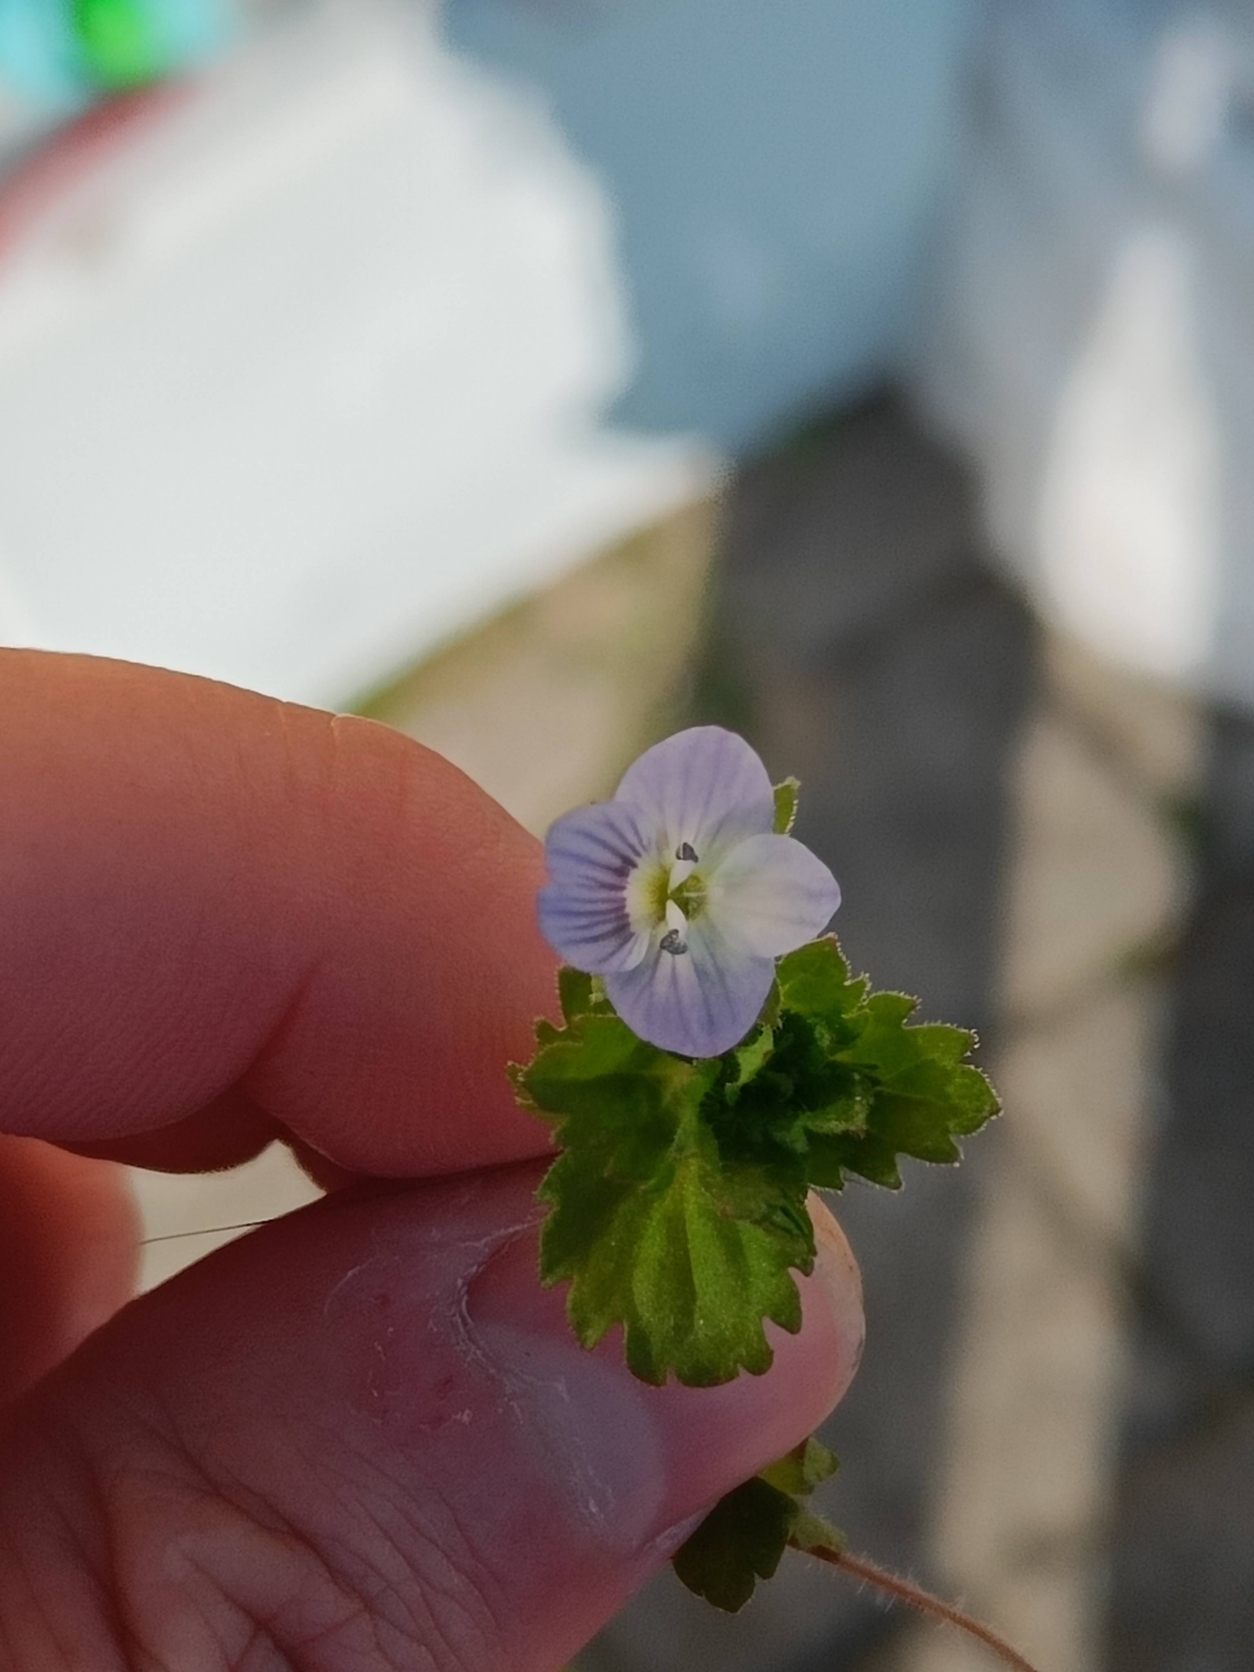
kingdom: Plantae
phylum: Tracheophyta
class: Magnoliopsida
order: Lamiales
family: Plantaginaceae
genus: Veronica
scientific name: Veronica persica
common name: Storkronet ærenpris
